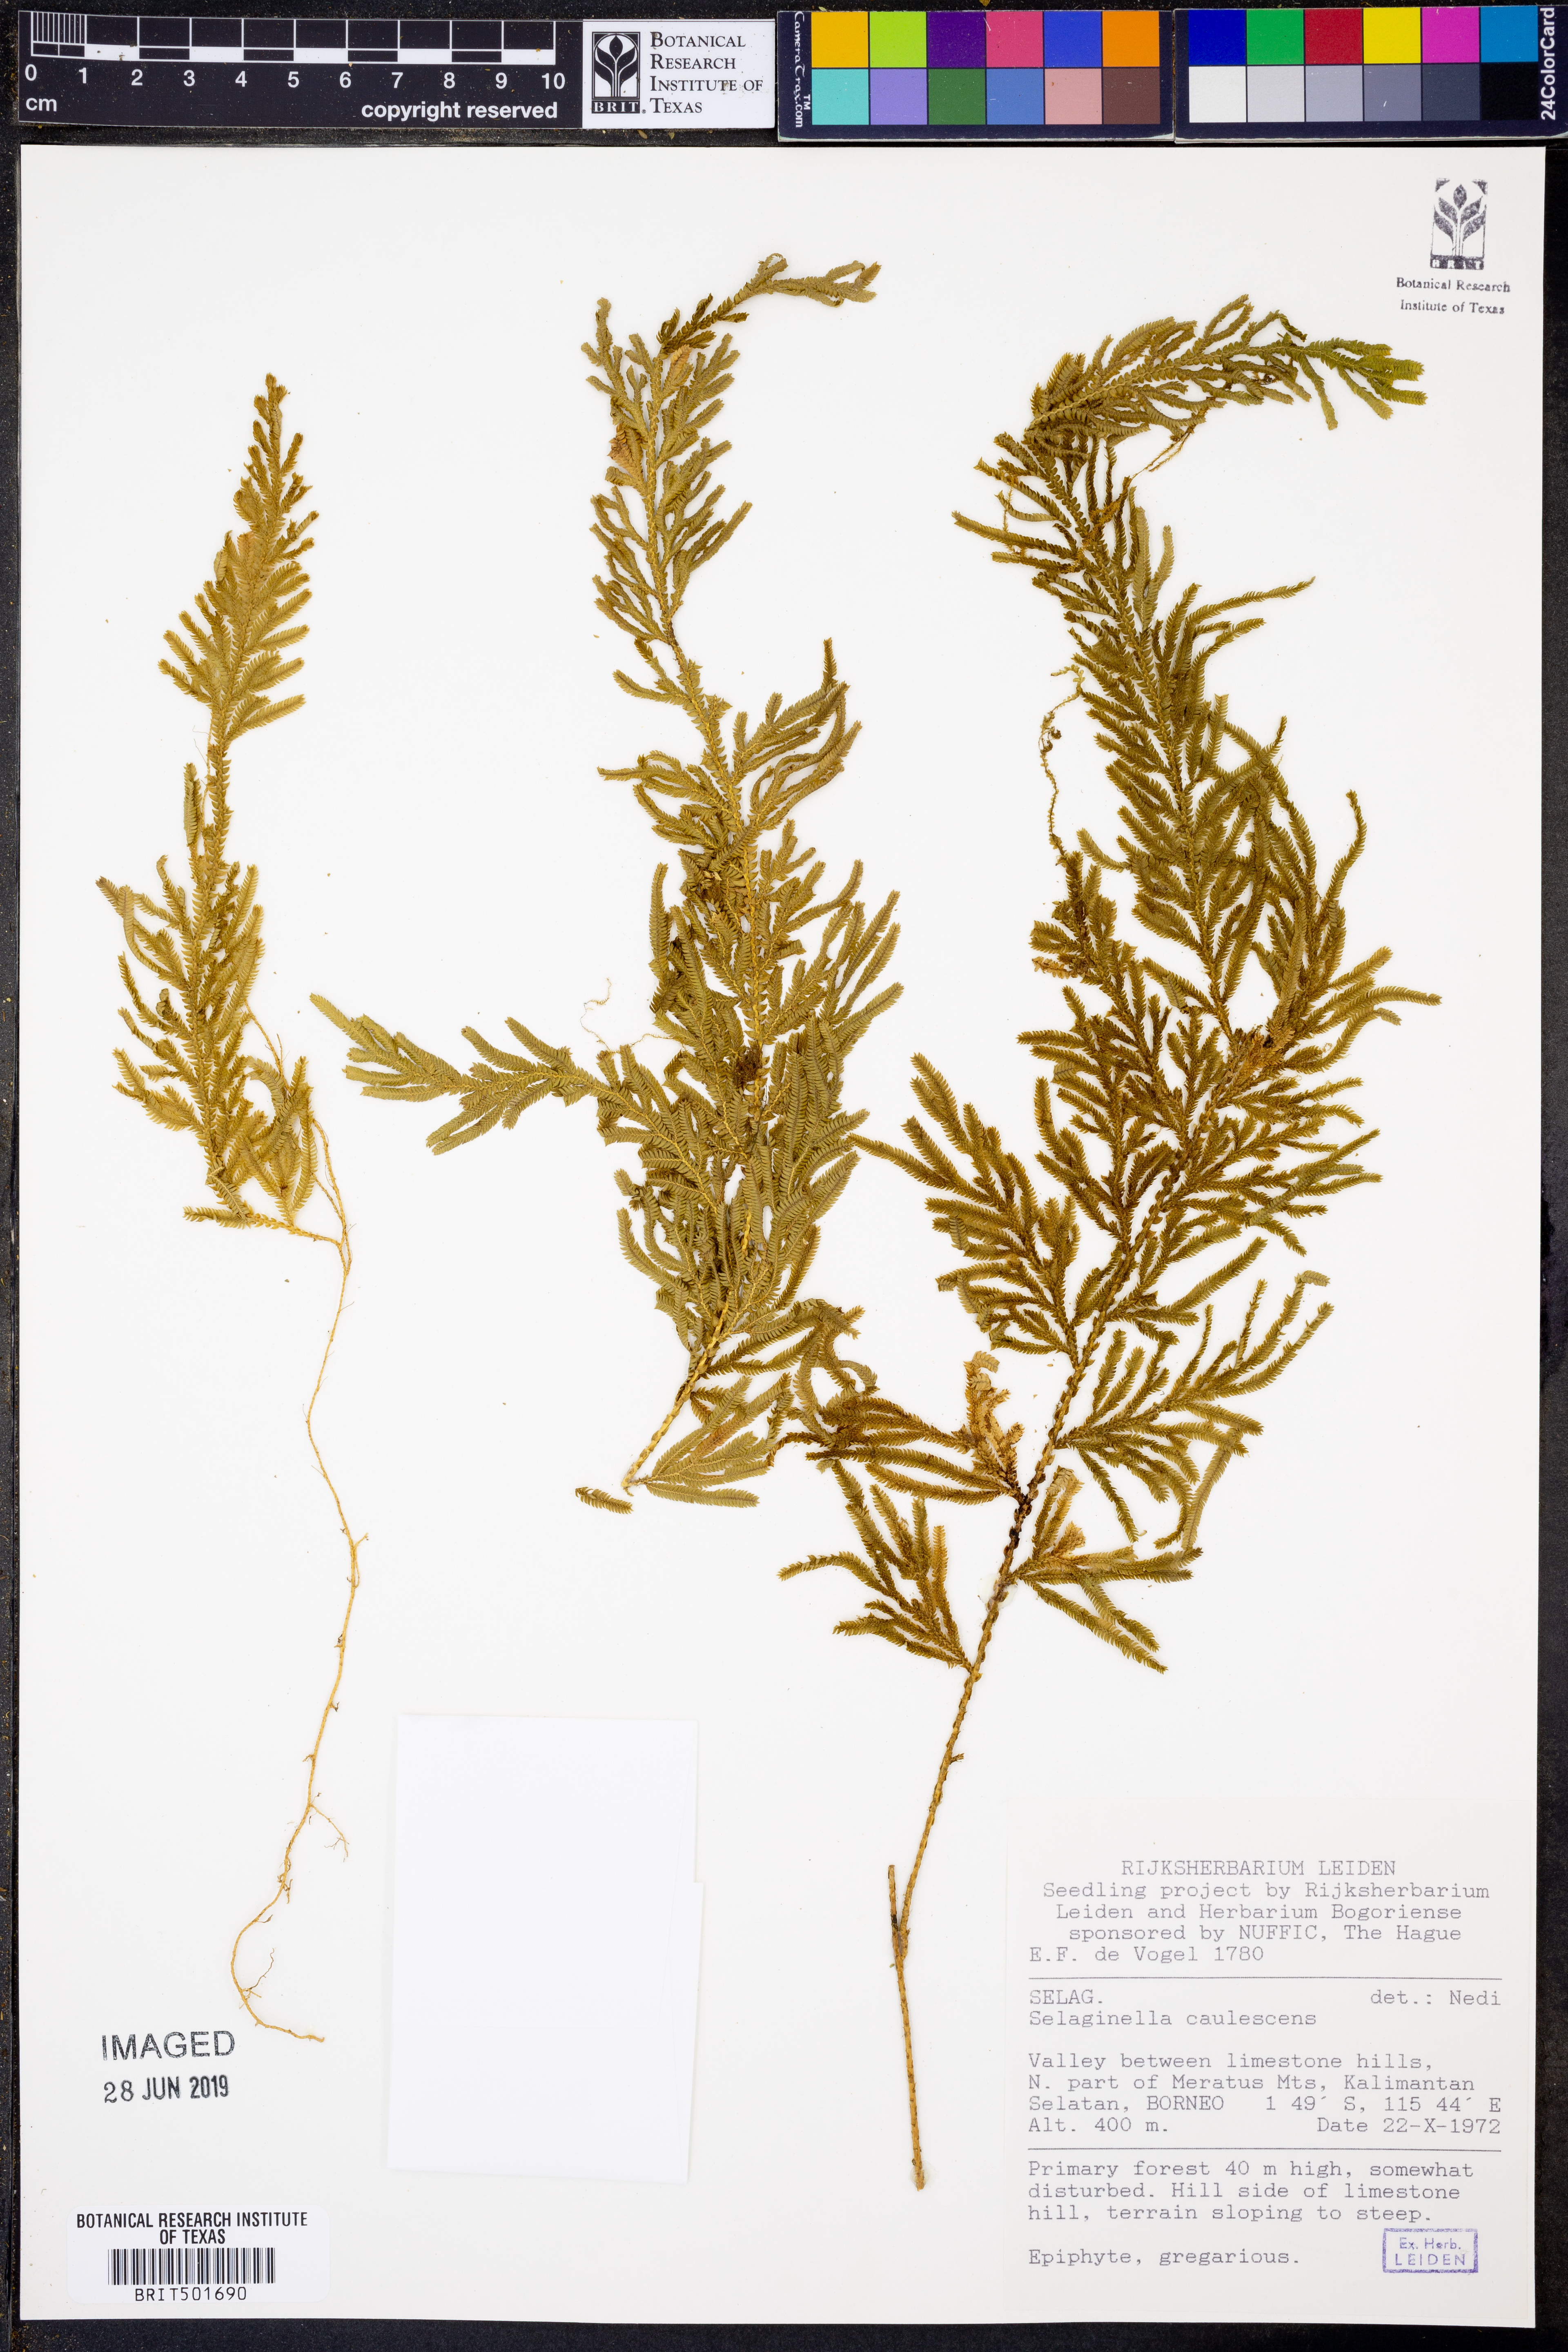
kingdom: Plantae
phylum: Tracheophyta
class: Lycopodiopsida
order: Selaginellales
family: Selaginellaceae
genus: Selaginella
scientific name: Selaginella involvens
